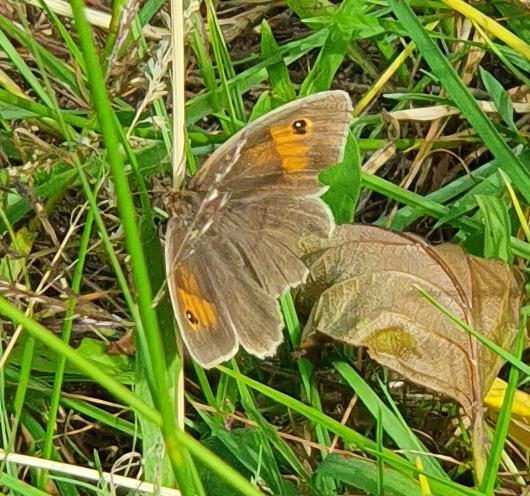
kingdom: Animalia
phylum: Arthropoda
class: Insecta
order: Lepidoptera
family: Nymphalidae
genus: Maniola
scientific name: Maniola jurtina
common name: Græsrandøje
